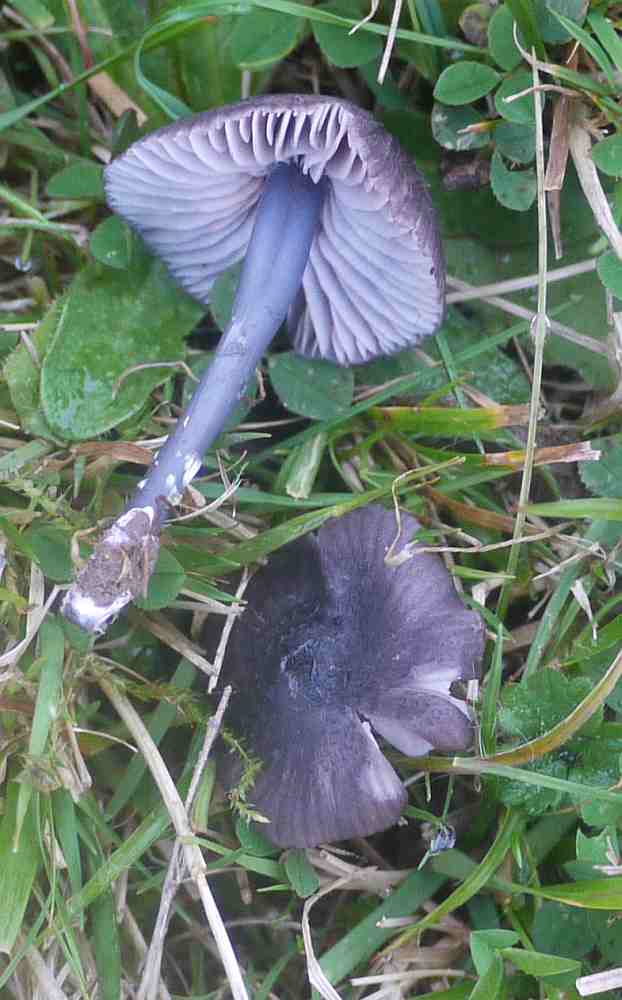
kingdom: Fungi
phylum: Basidiomycota
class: Agaricomycetes
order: Agaricales
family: Entolomataceae
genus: Entoloma
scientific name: Entoloma chalybeum
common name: blåbladet rødblad
